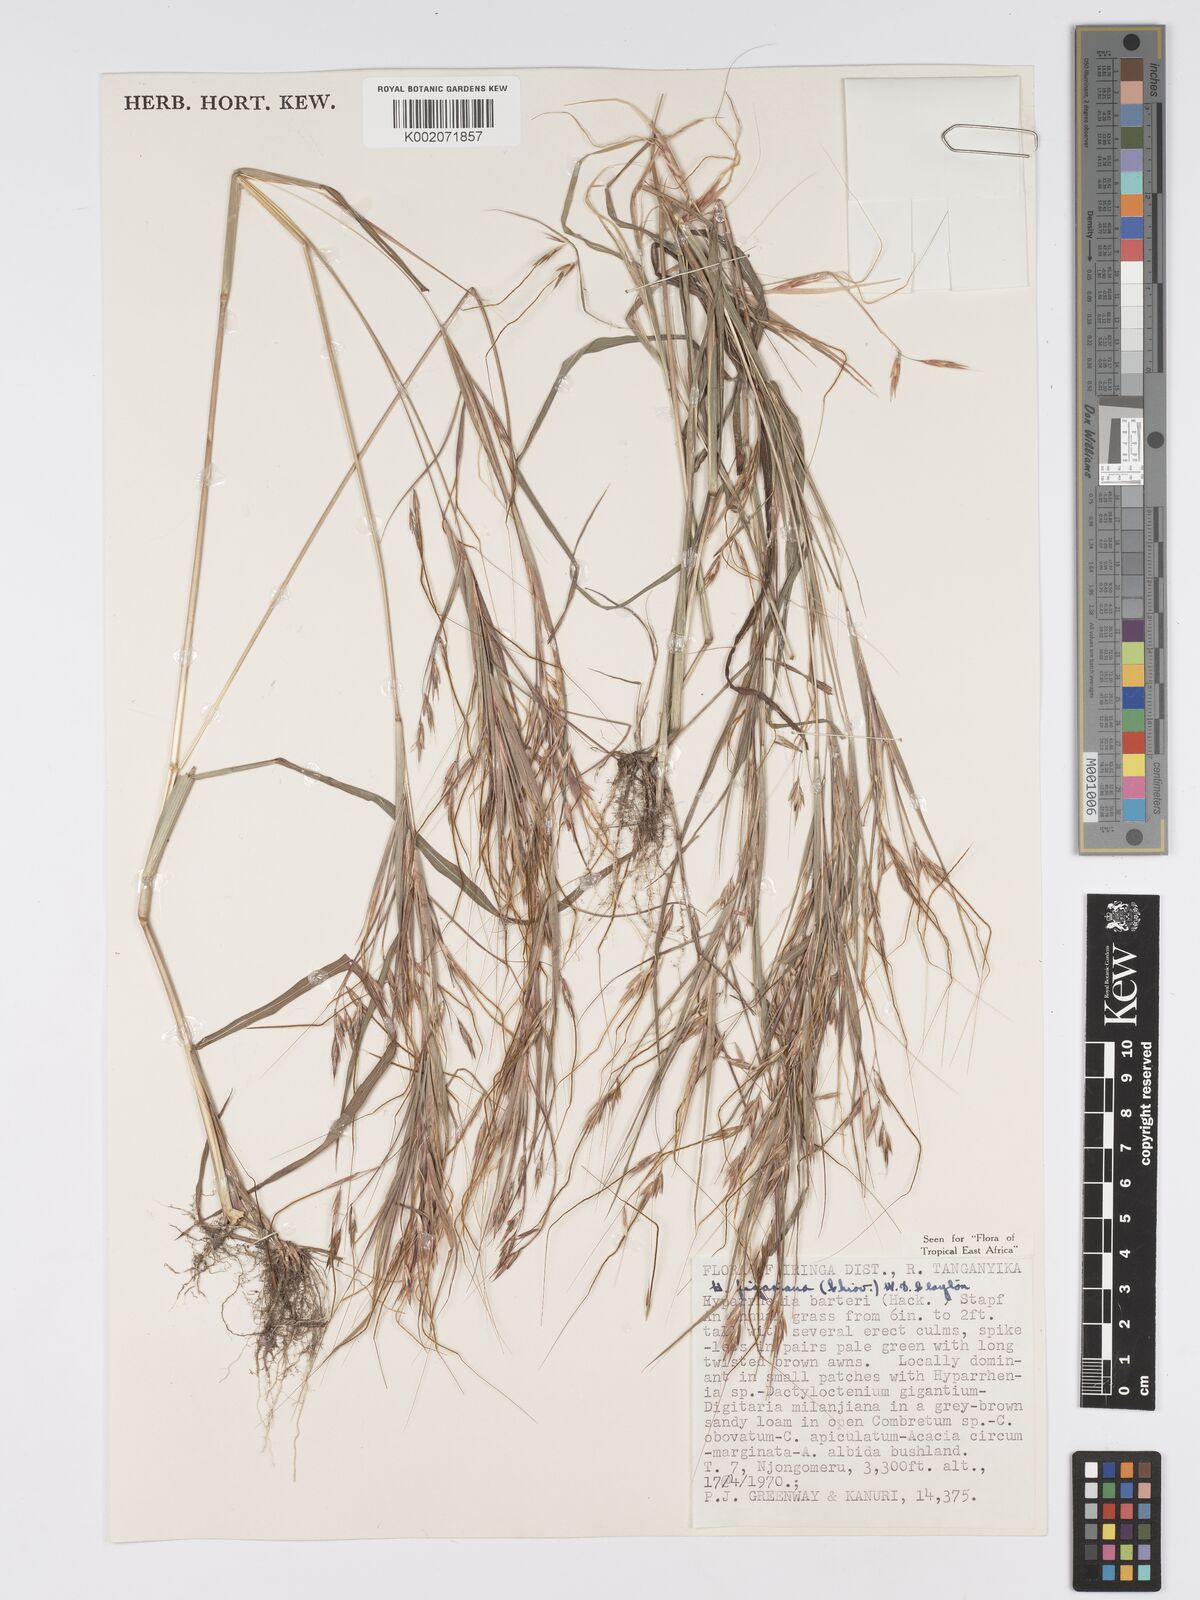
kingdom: Plantae
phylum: Tracheophyta
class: Liliopsida
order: Poales
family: Poaceae
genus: Hyparrhenia
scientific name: Hyparrhenia figariana
